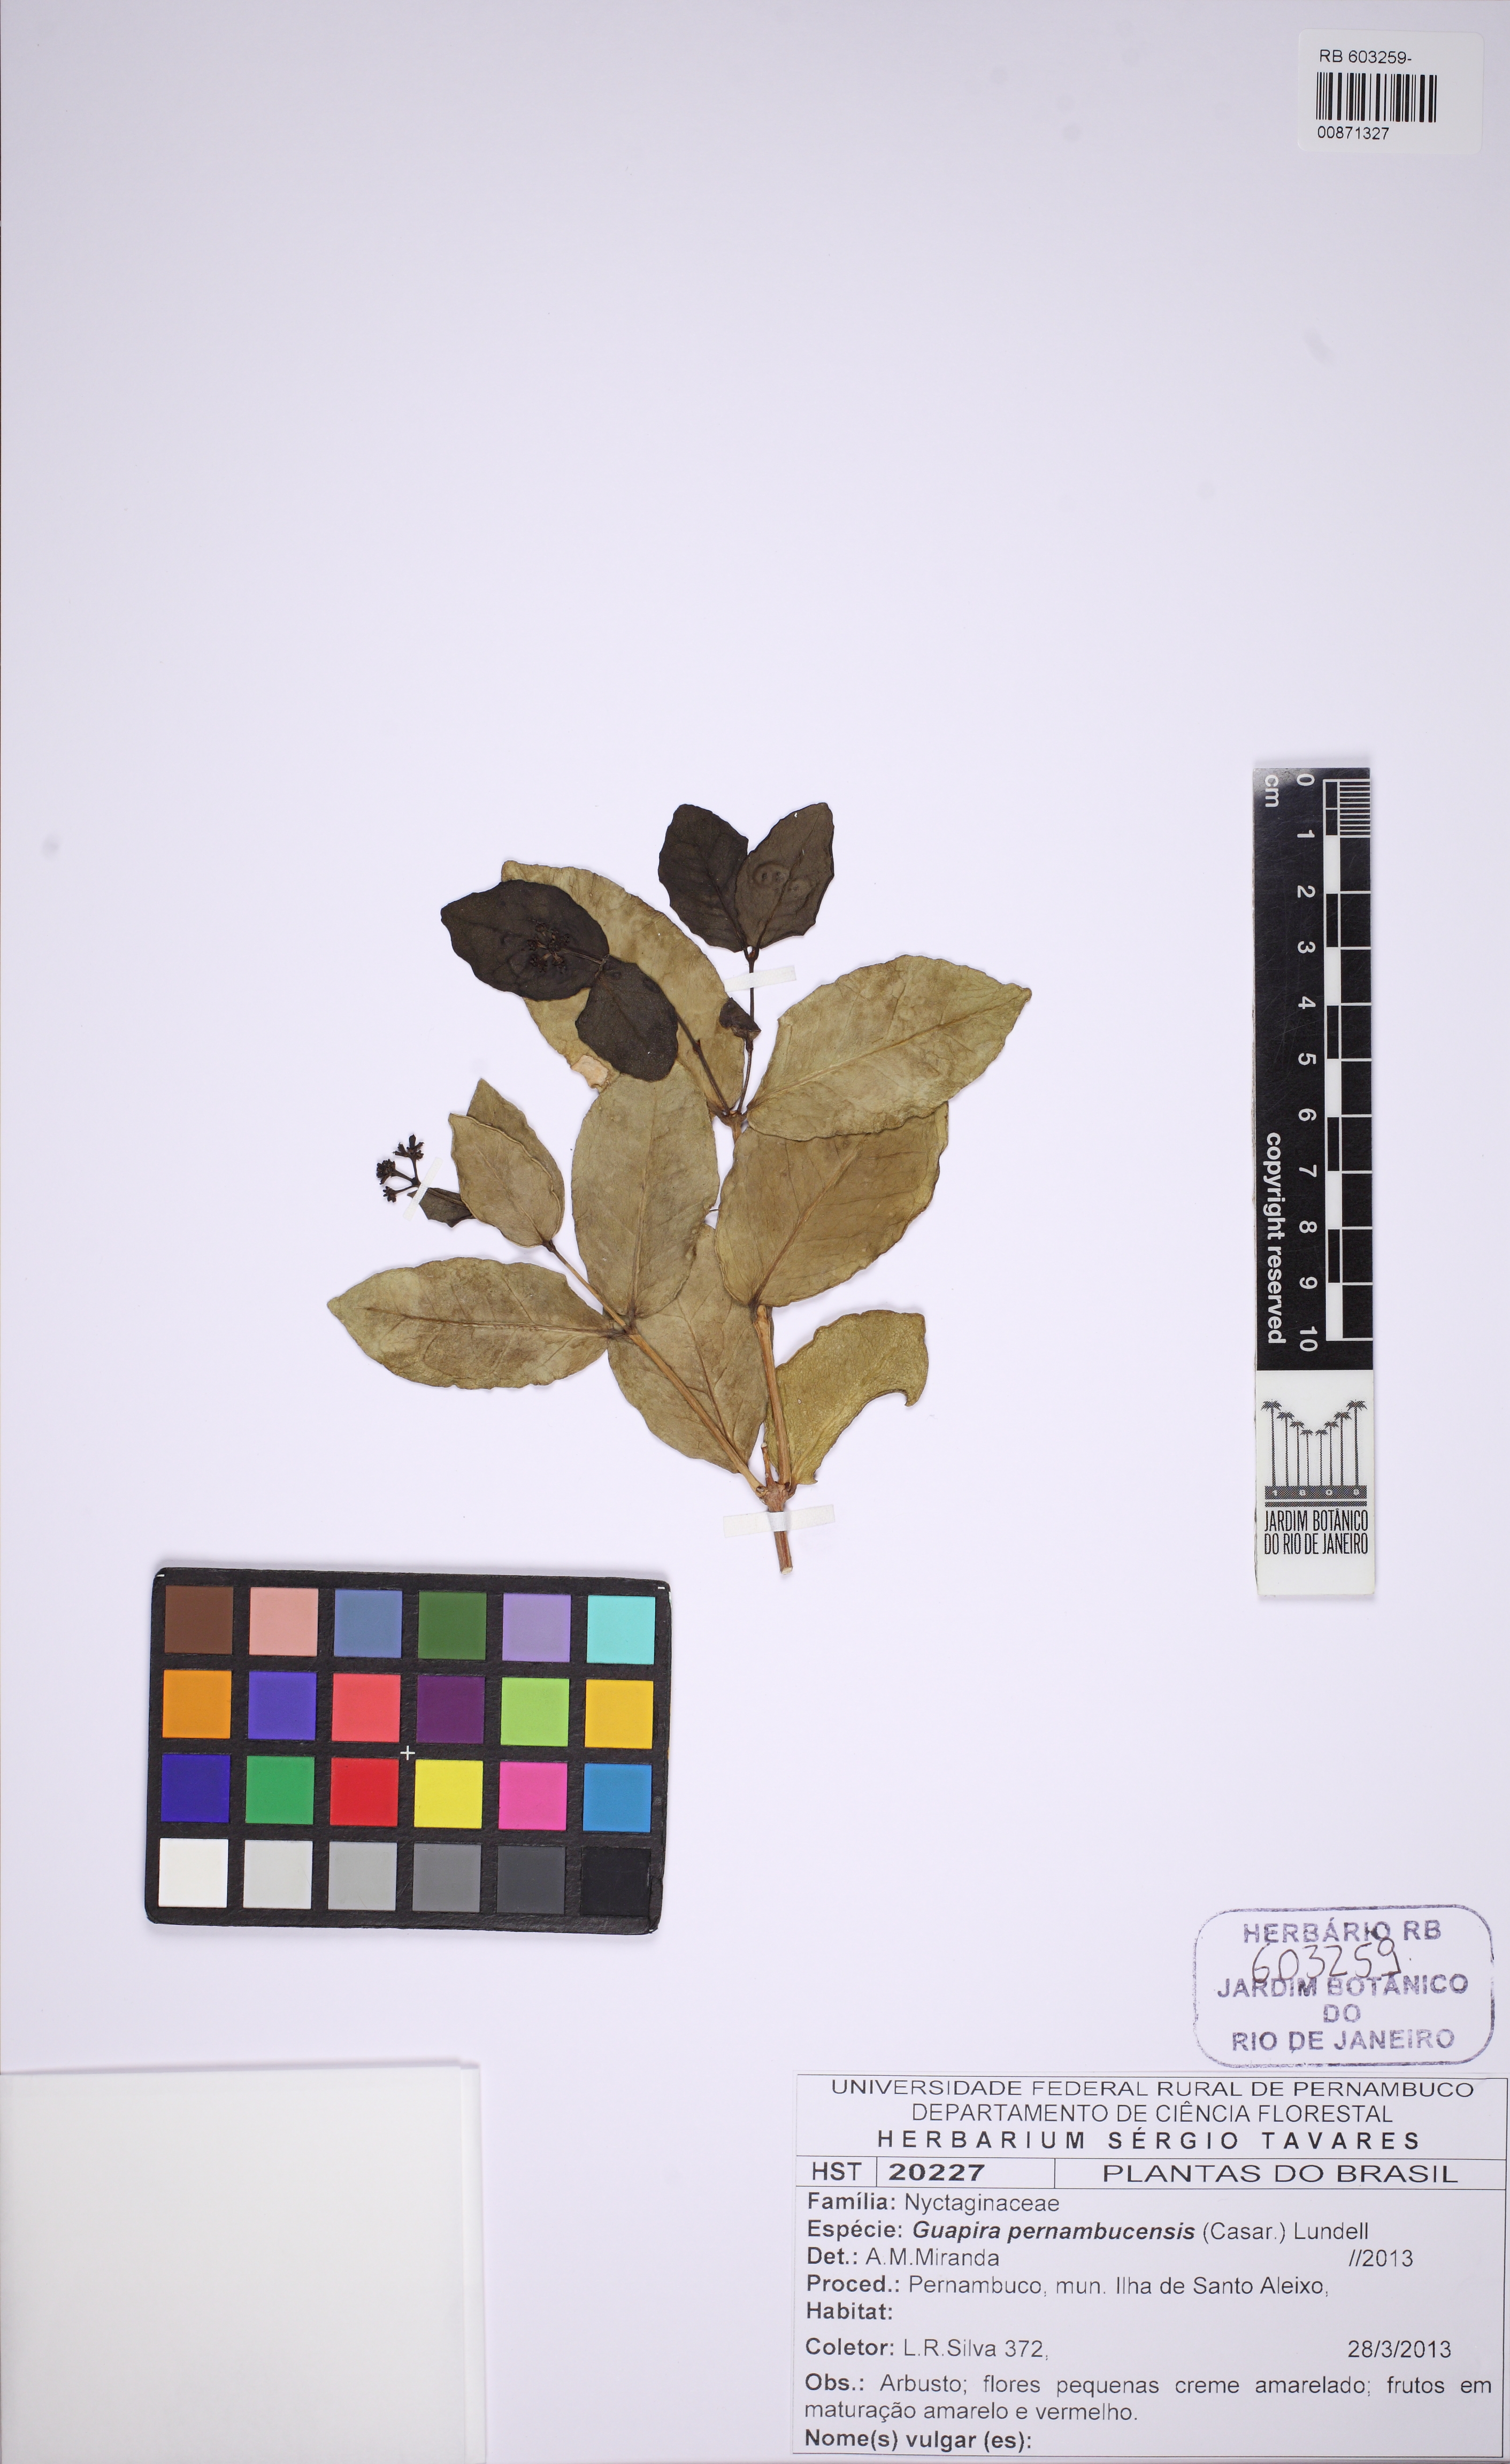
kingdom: Plantae
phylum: Tracheophyta
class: Magnoliopsida
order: Caryophyllales
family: Nyctaginaceae
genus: Guapira
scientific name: Guapira pernambucensis
